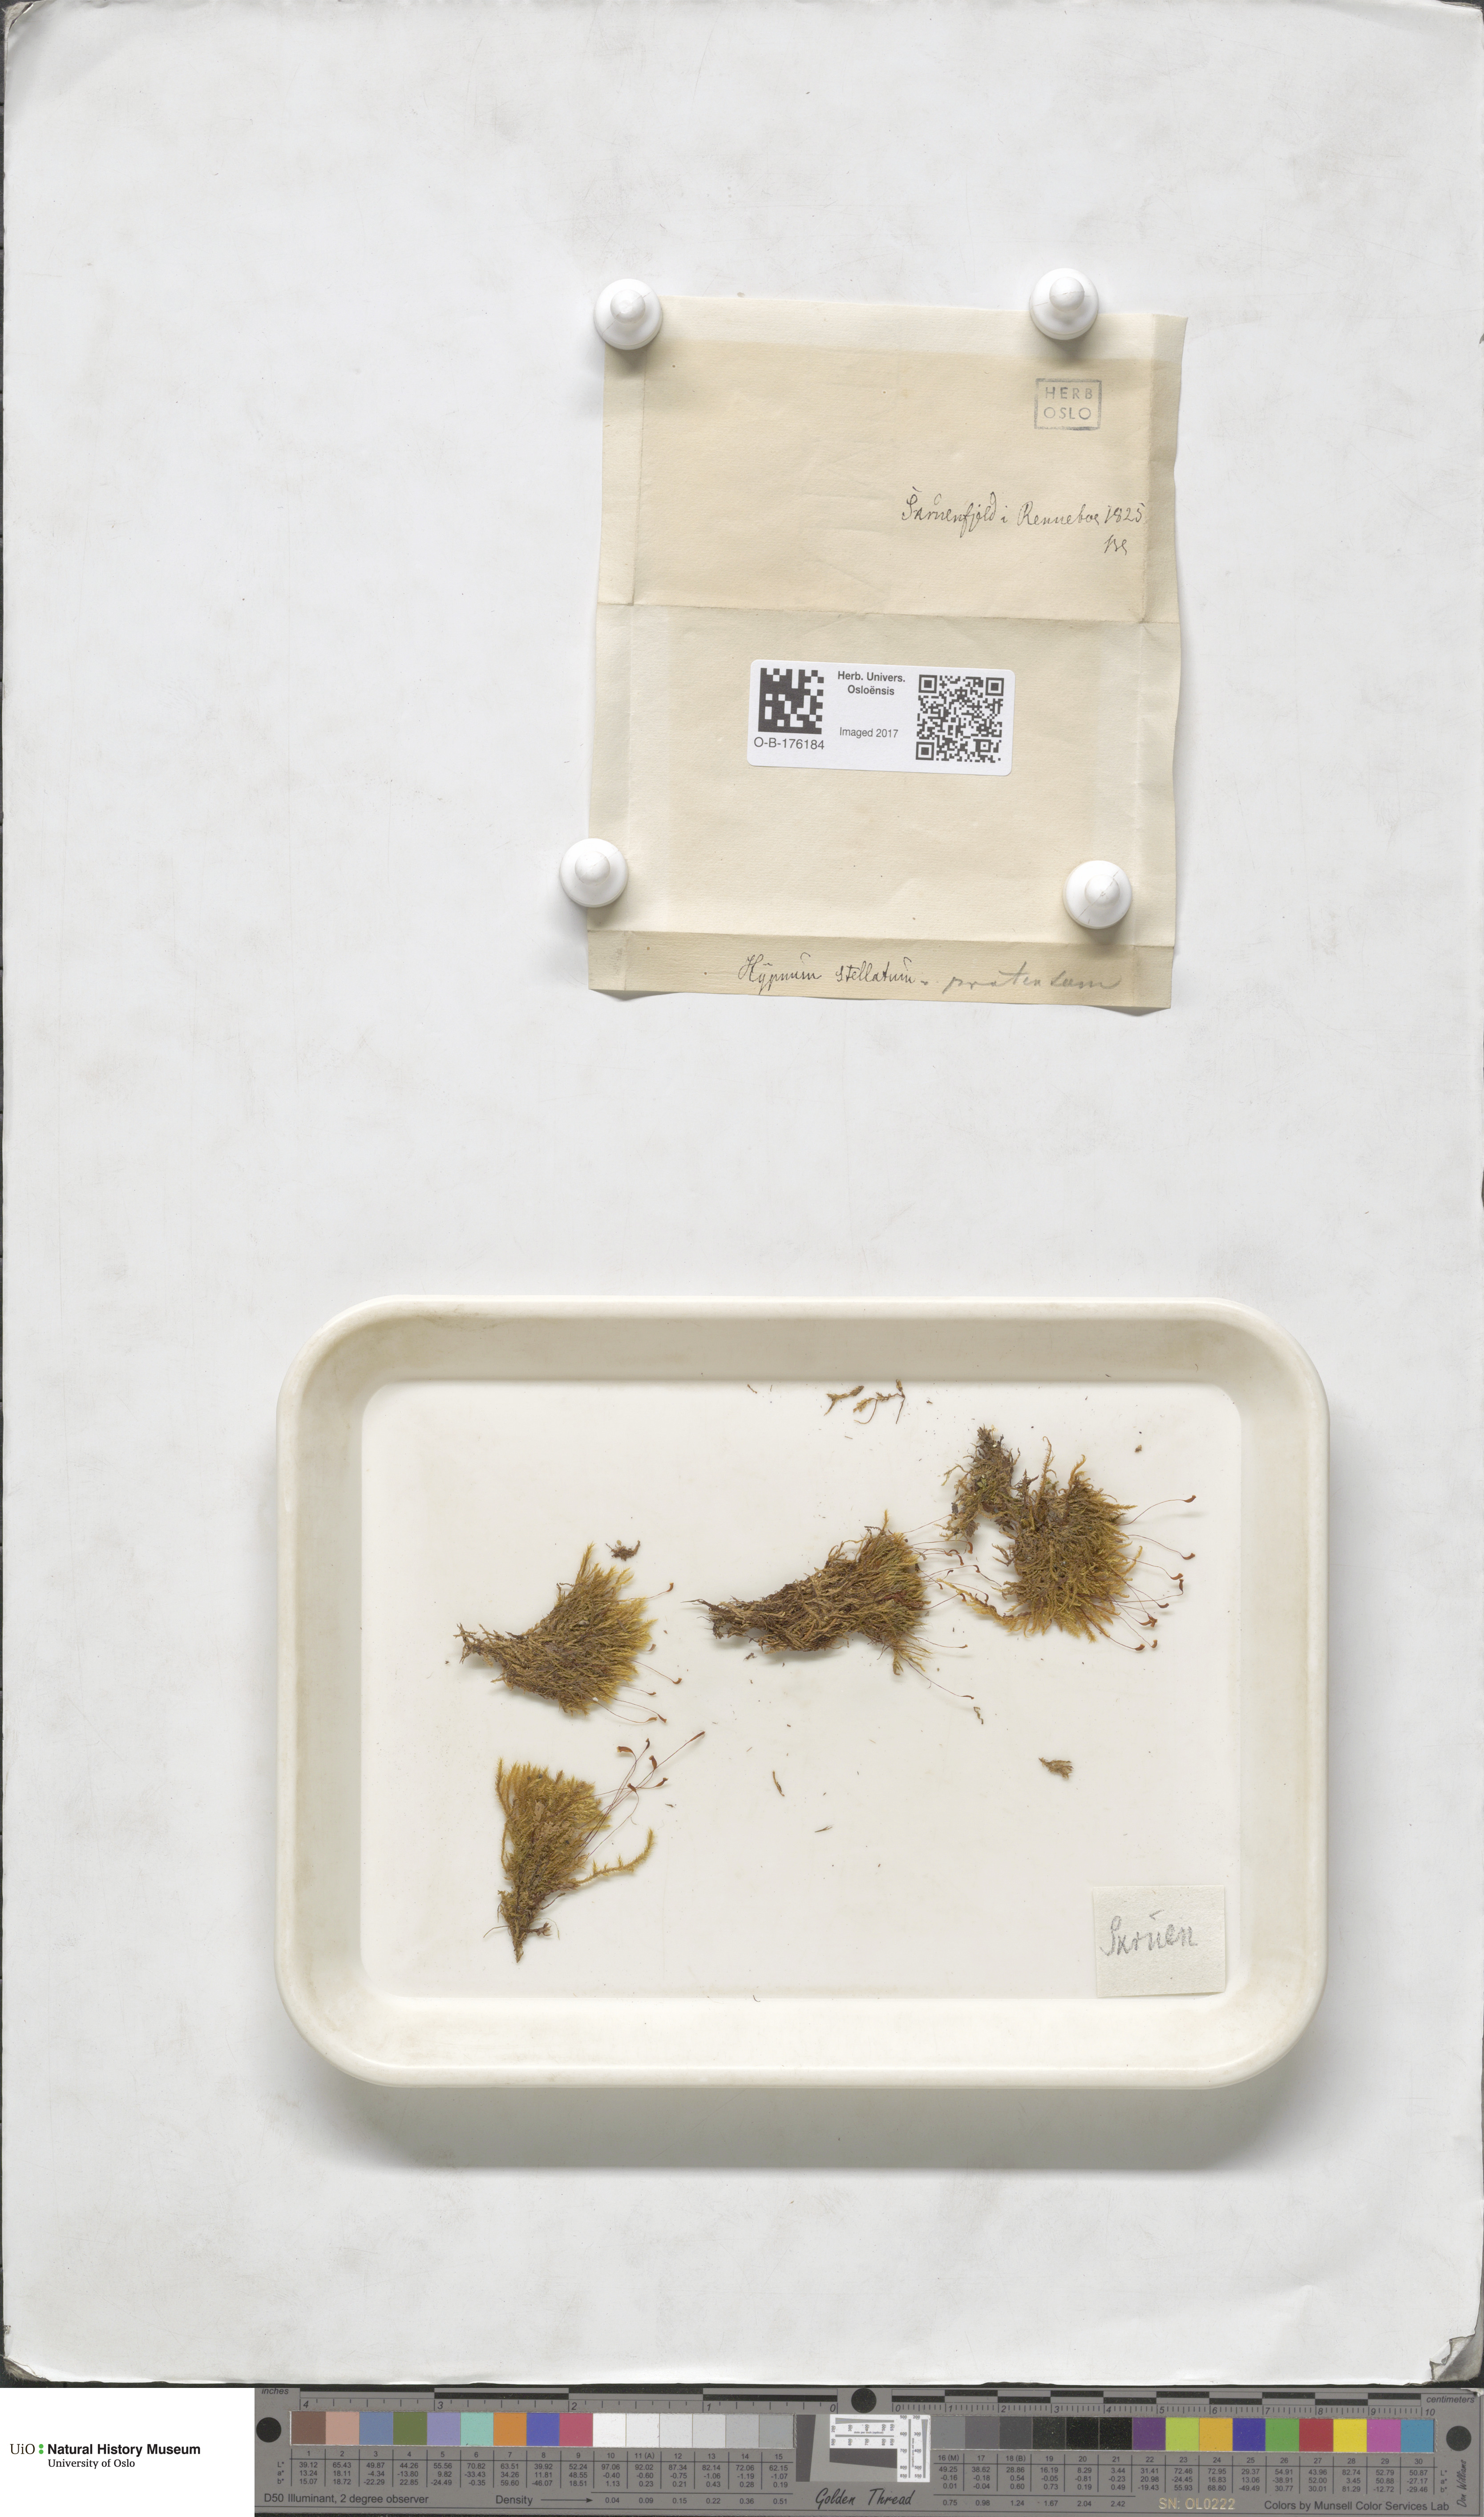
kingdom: Plantae
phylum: Bryophyta
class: Bryopsida
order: Hypnales
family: Amblystegiaceae
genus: Campylium
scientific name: Campylium stellatum
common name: Yellow starry fen moss
